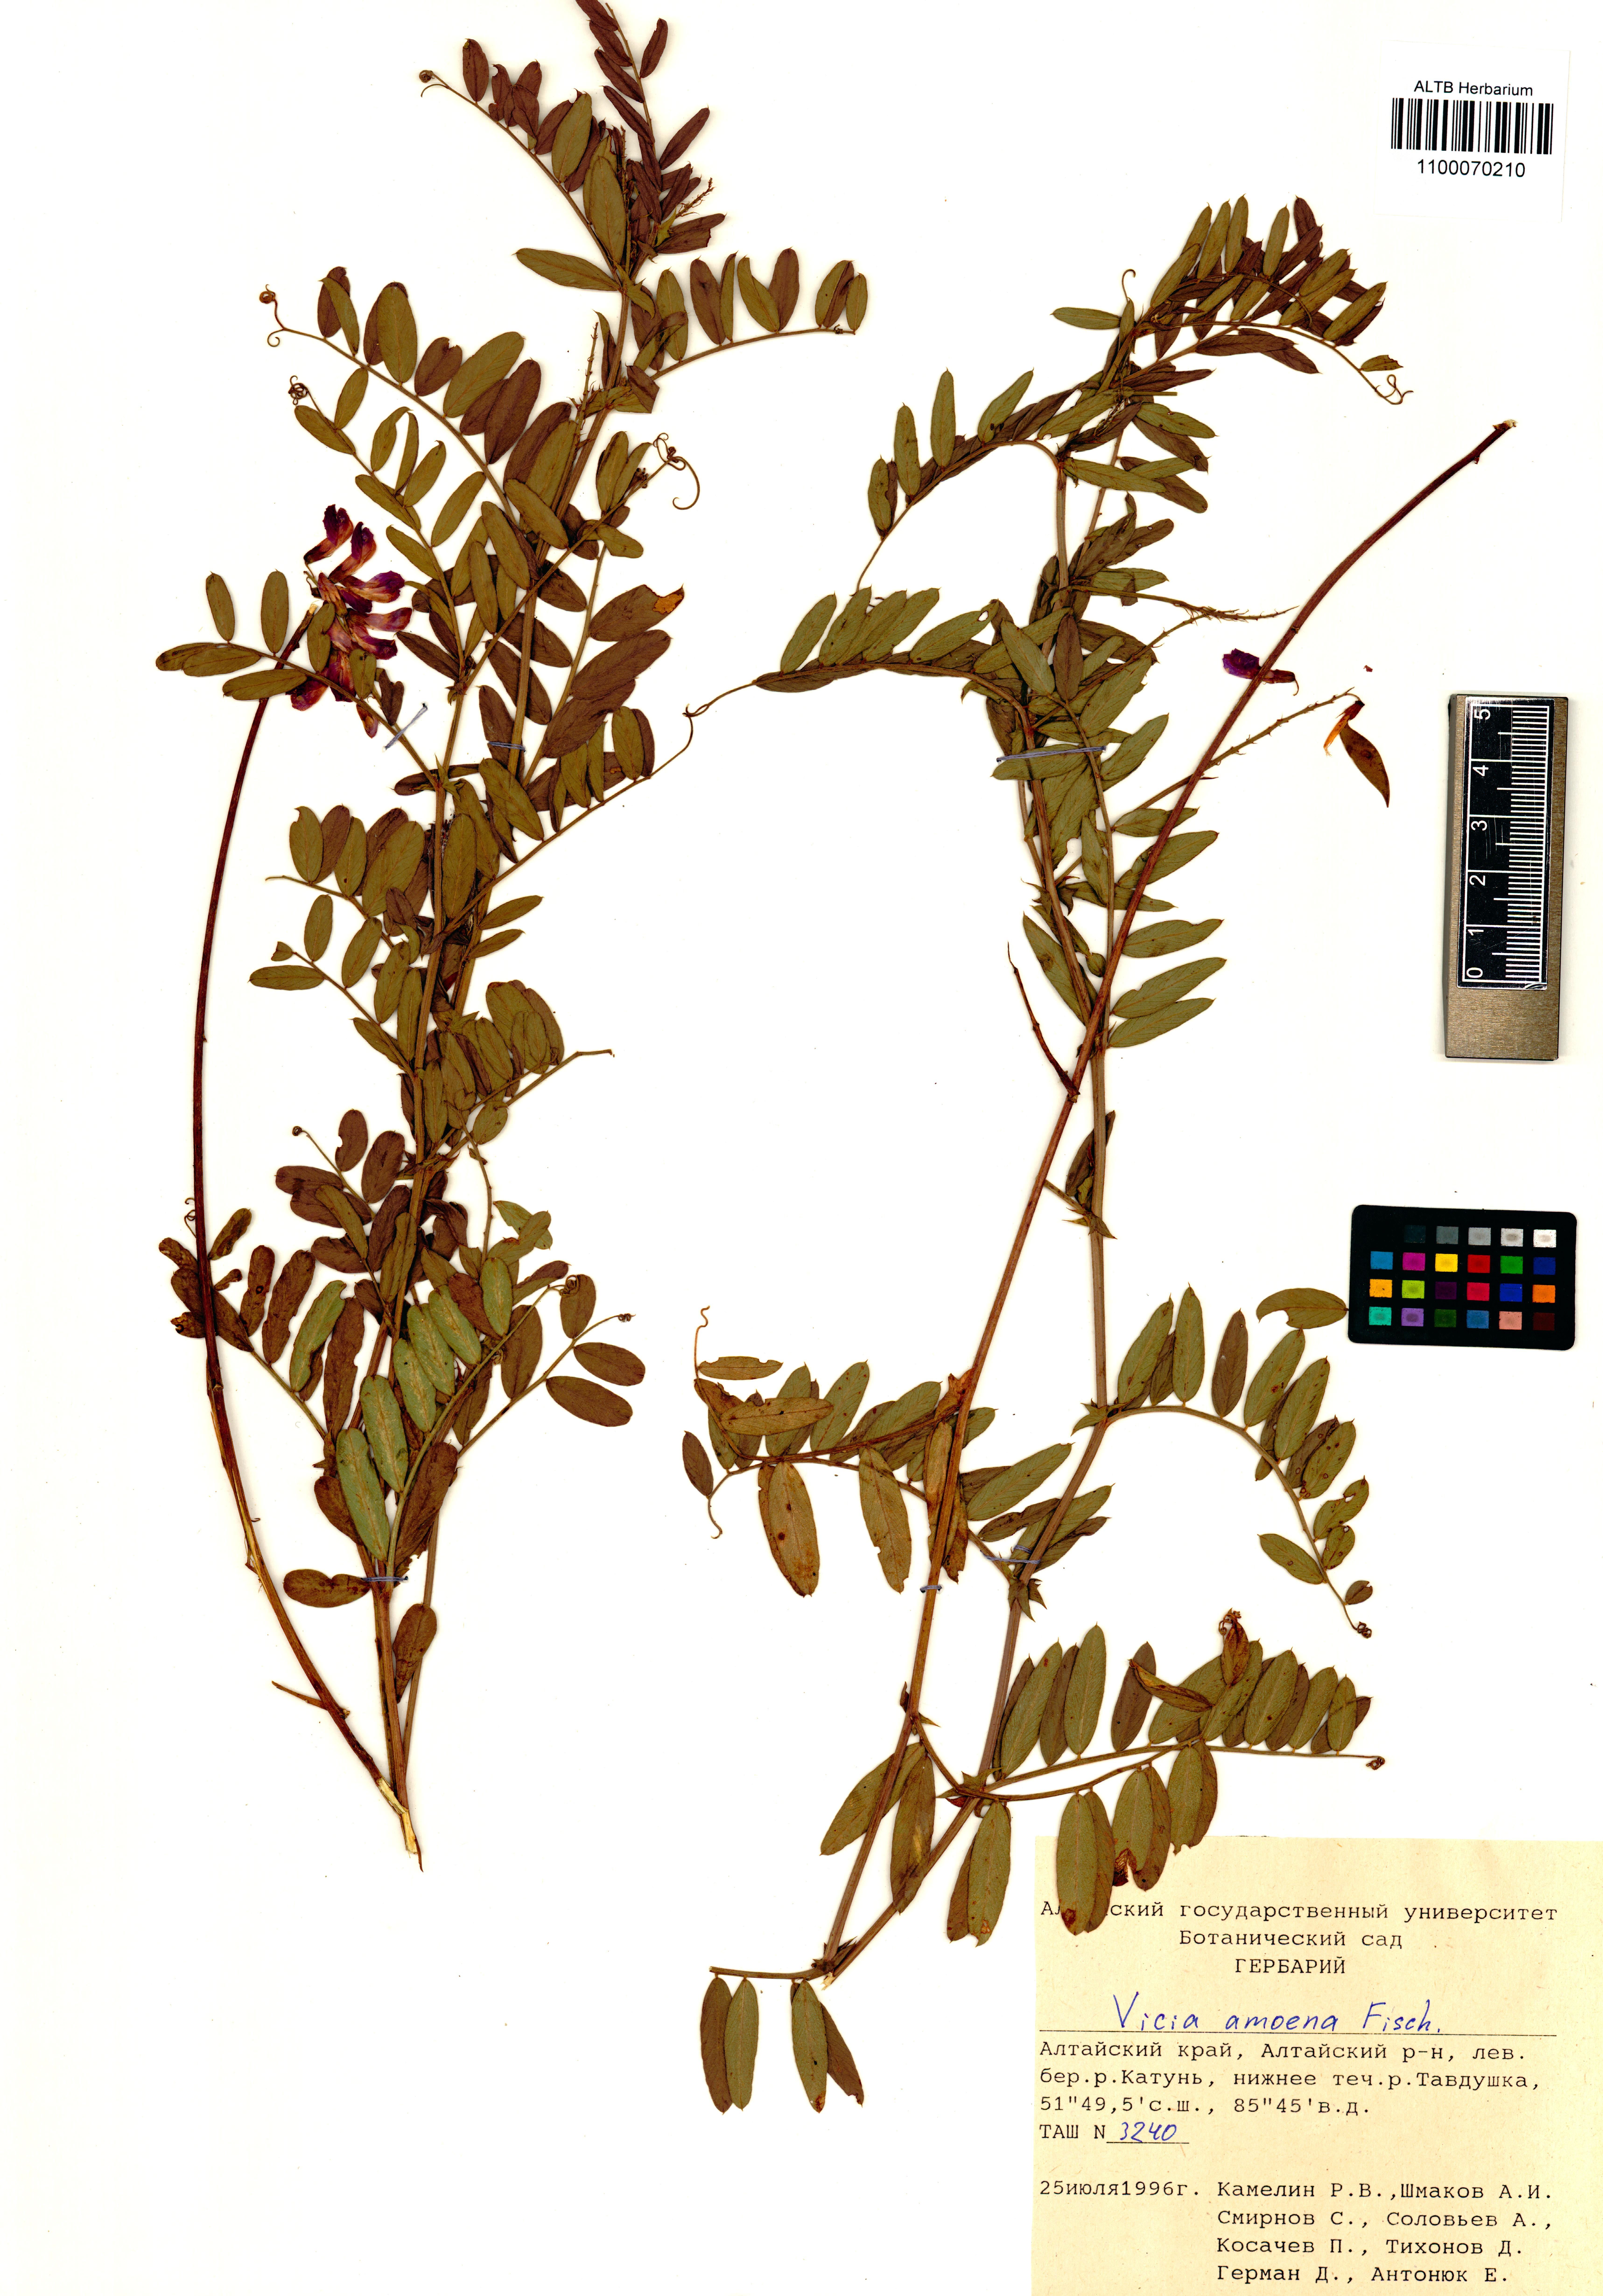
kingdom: Plantae
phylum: Tracheophyta
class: Magnoliopsida
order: Fabales
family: Fabaceae
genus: Vicia
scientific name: Vicia amoena
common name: Cheder ebs
